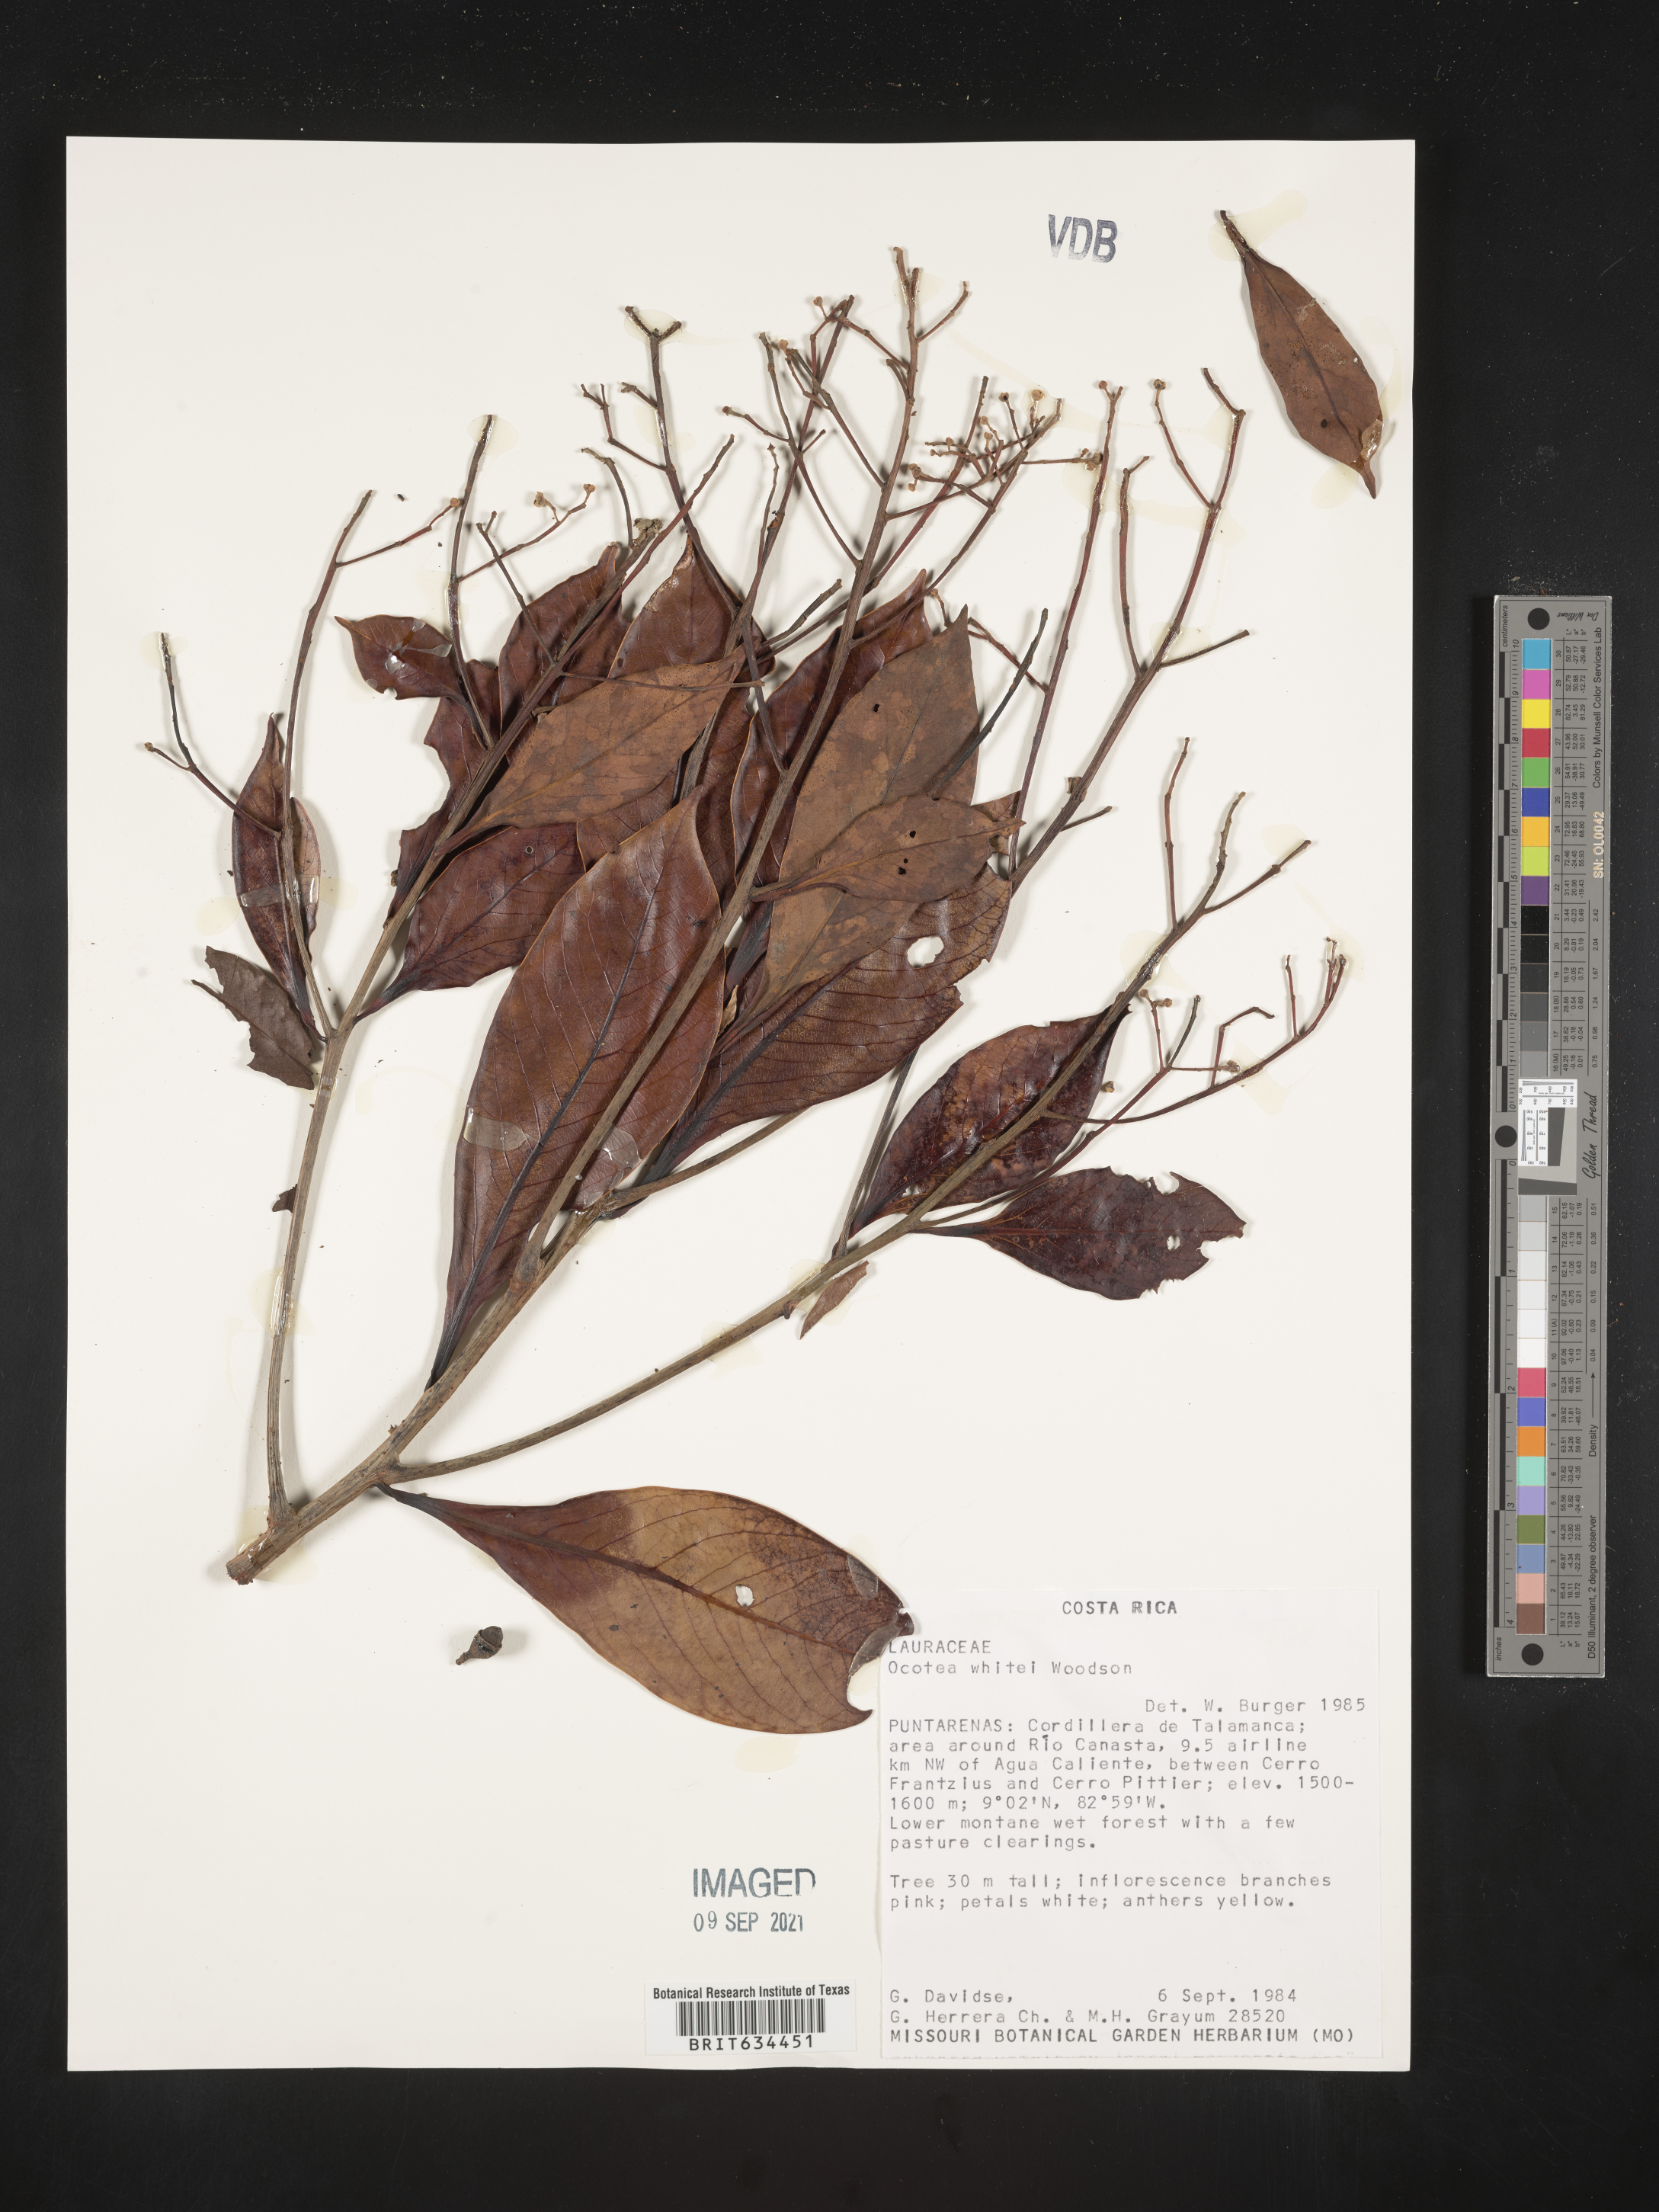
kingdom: Plantae
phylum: Tracheophyta
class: Magnoliopsida
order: Laurales
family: Lauraceae
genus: Ocotea
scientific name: Ocotea
